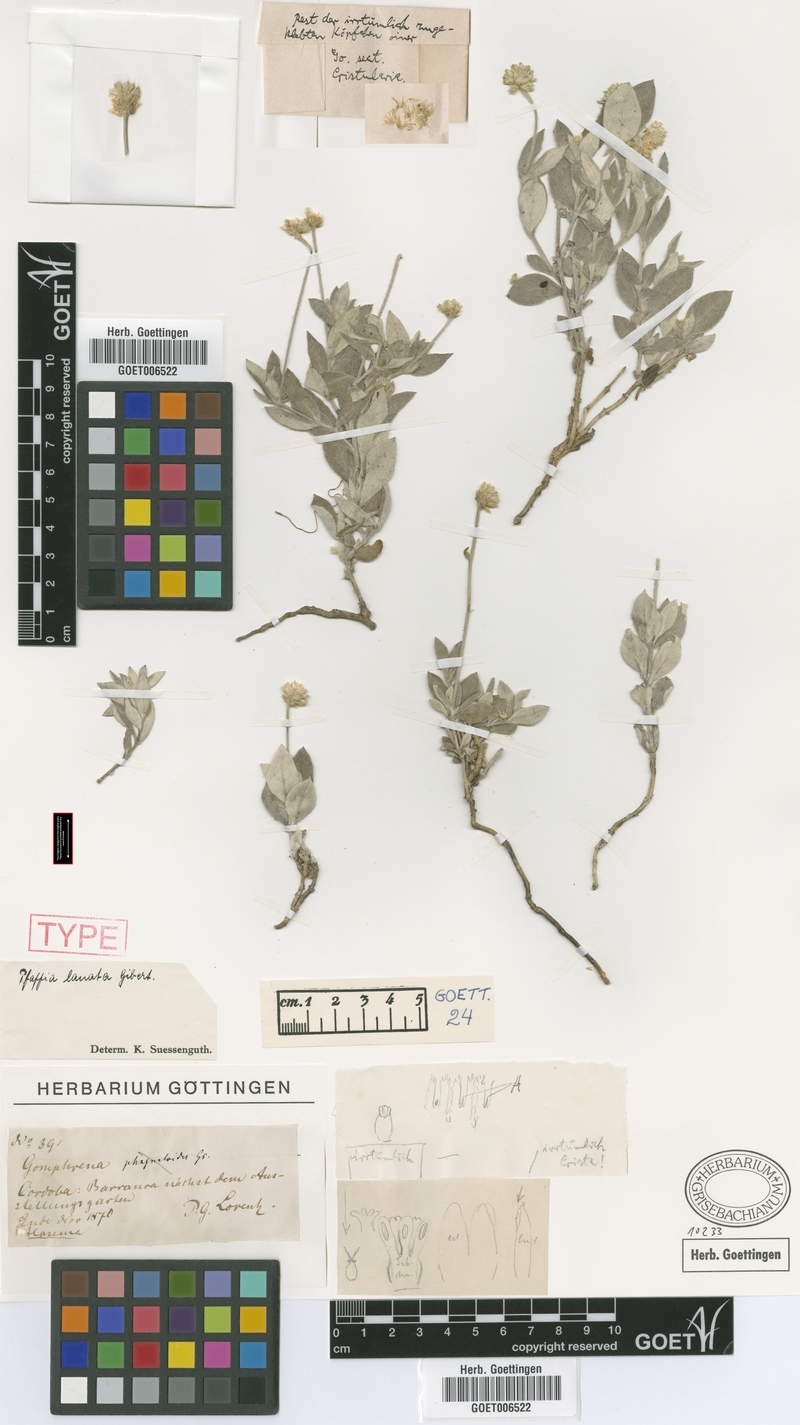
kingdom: Plantae
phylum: Tracheophyta
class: Magnoliopsida
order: Caryophyllales
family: Amaranthaceae
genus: Pfaffia
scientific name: Pfaffia gnaphaloides
